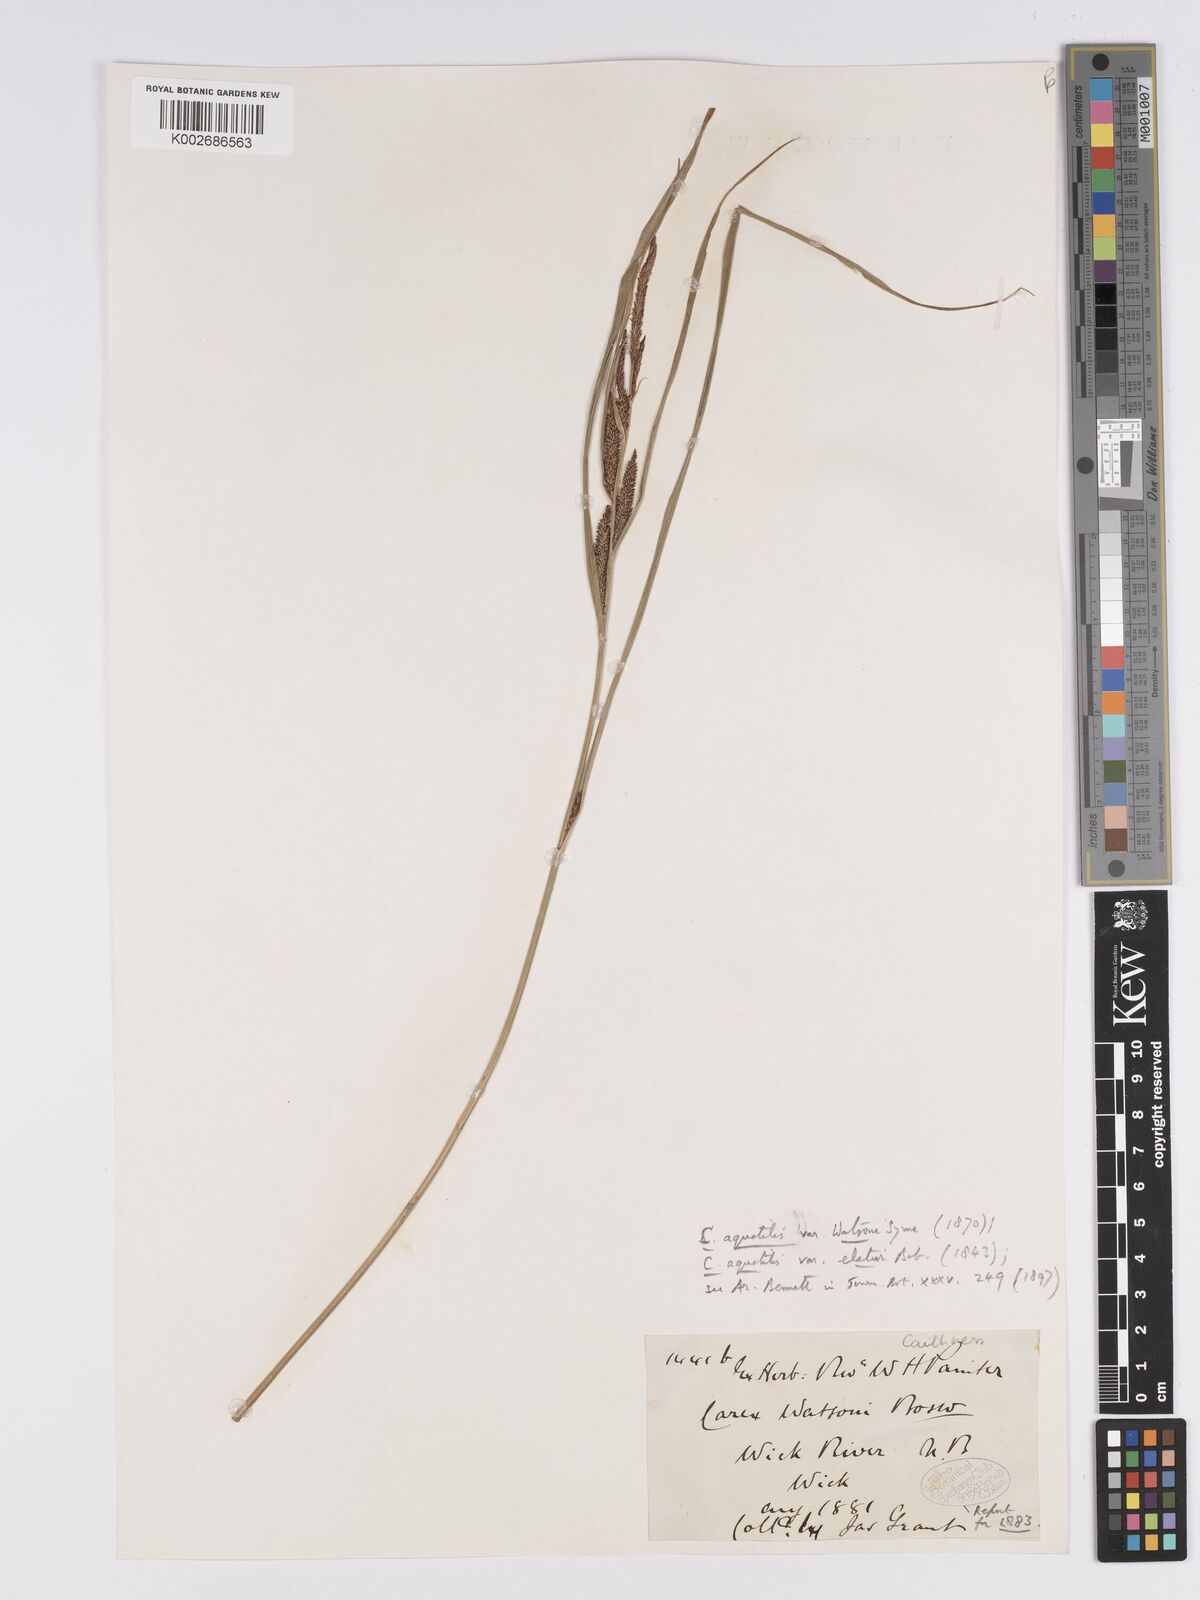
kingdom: Plantae
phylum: Tracheophyta
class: Liliopsida
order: Poales
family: Cyperaceae
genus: Carex
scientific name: Carex aquatilis
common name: Water sedge
